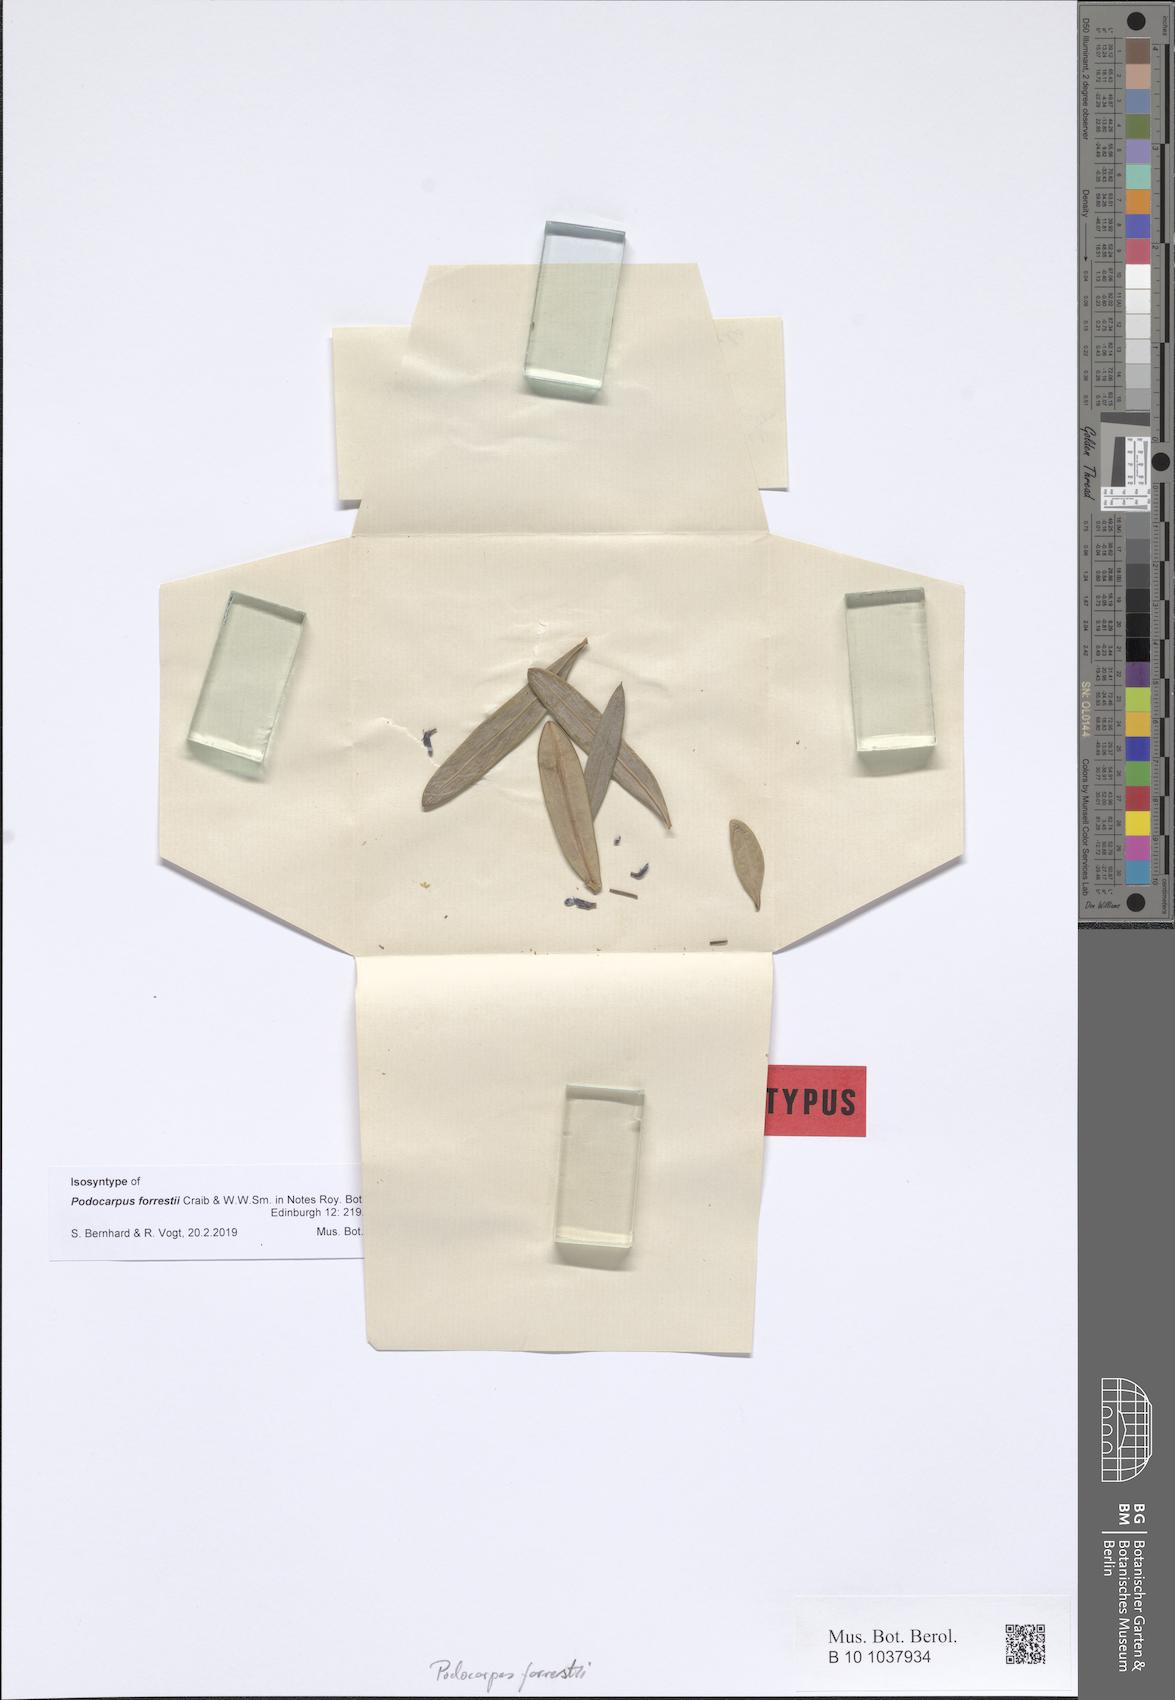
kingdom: Plantae
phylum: Tracheophyta
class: Pinopsida
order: Pinales
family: Podocarpaceae
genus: Podocarpus
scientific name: Podocarpus macrophyllus
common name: Japanese yew
